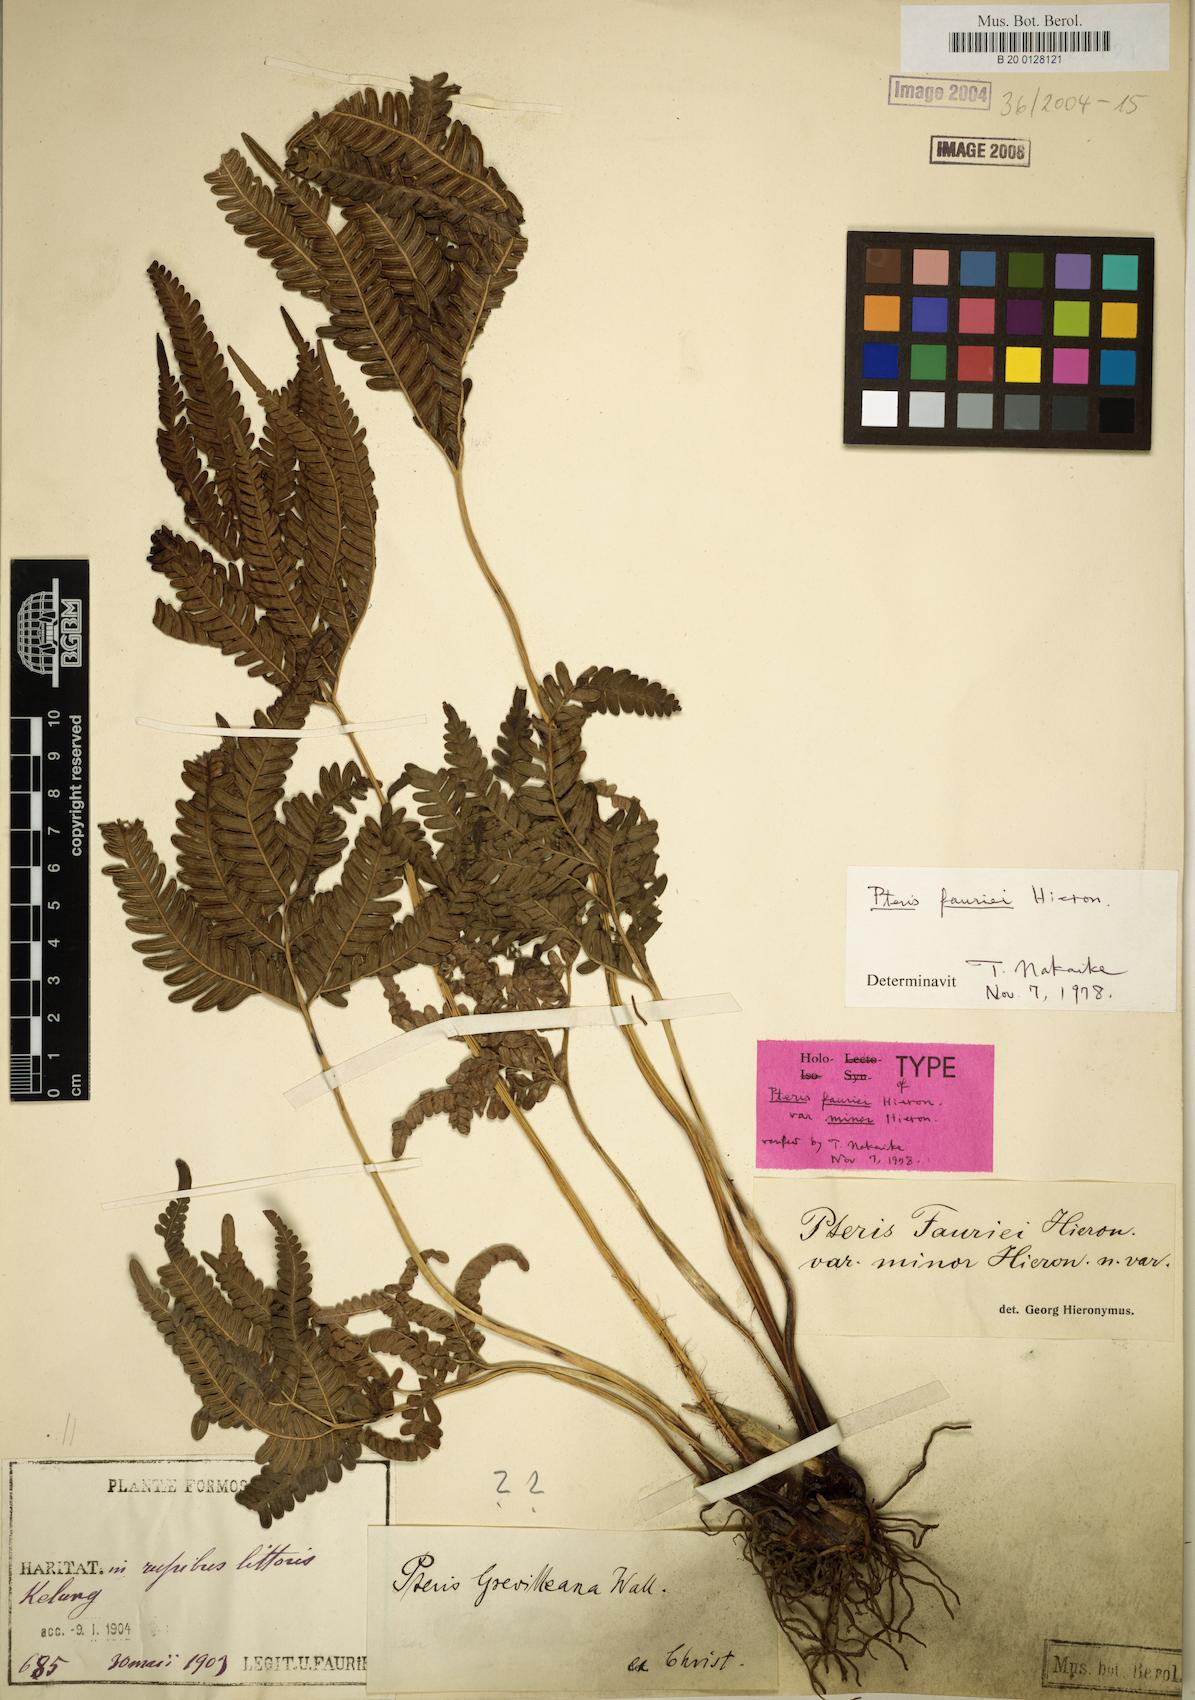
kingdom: Plantae
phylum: Tracheophyta
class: Polypodiopsida
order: Polypodiales
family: Pteridaceae
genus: Pteris
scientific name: Pteris minor
